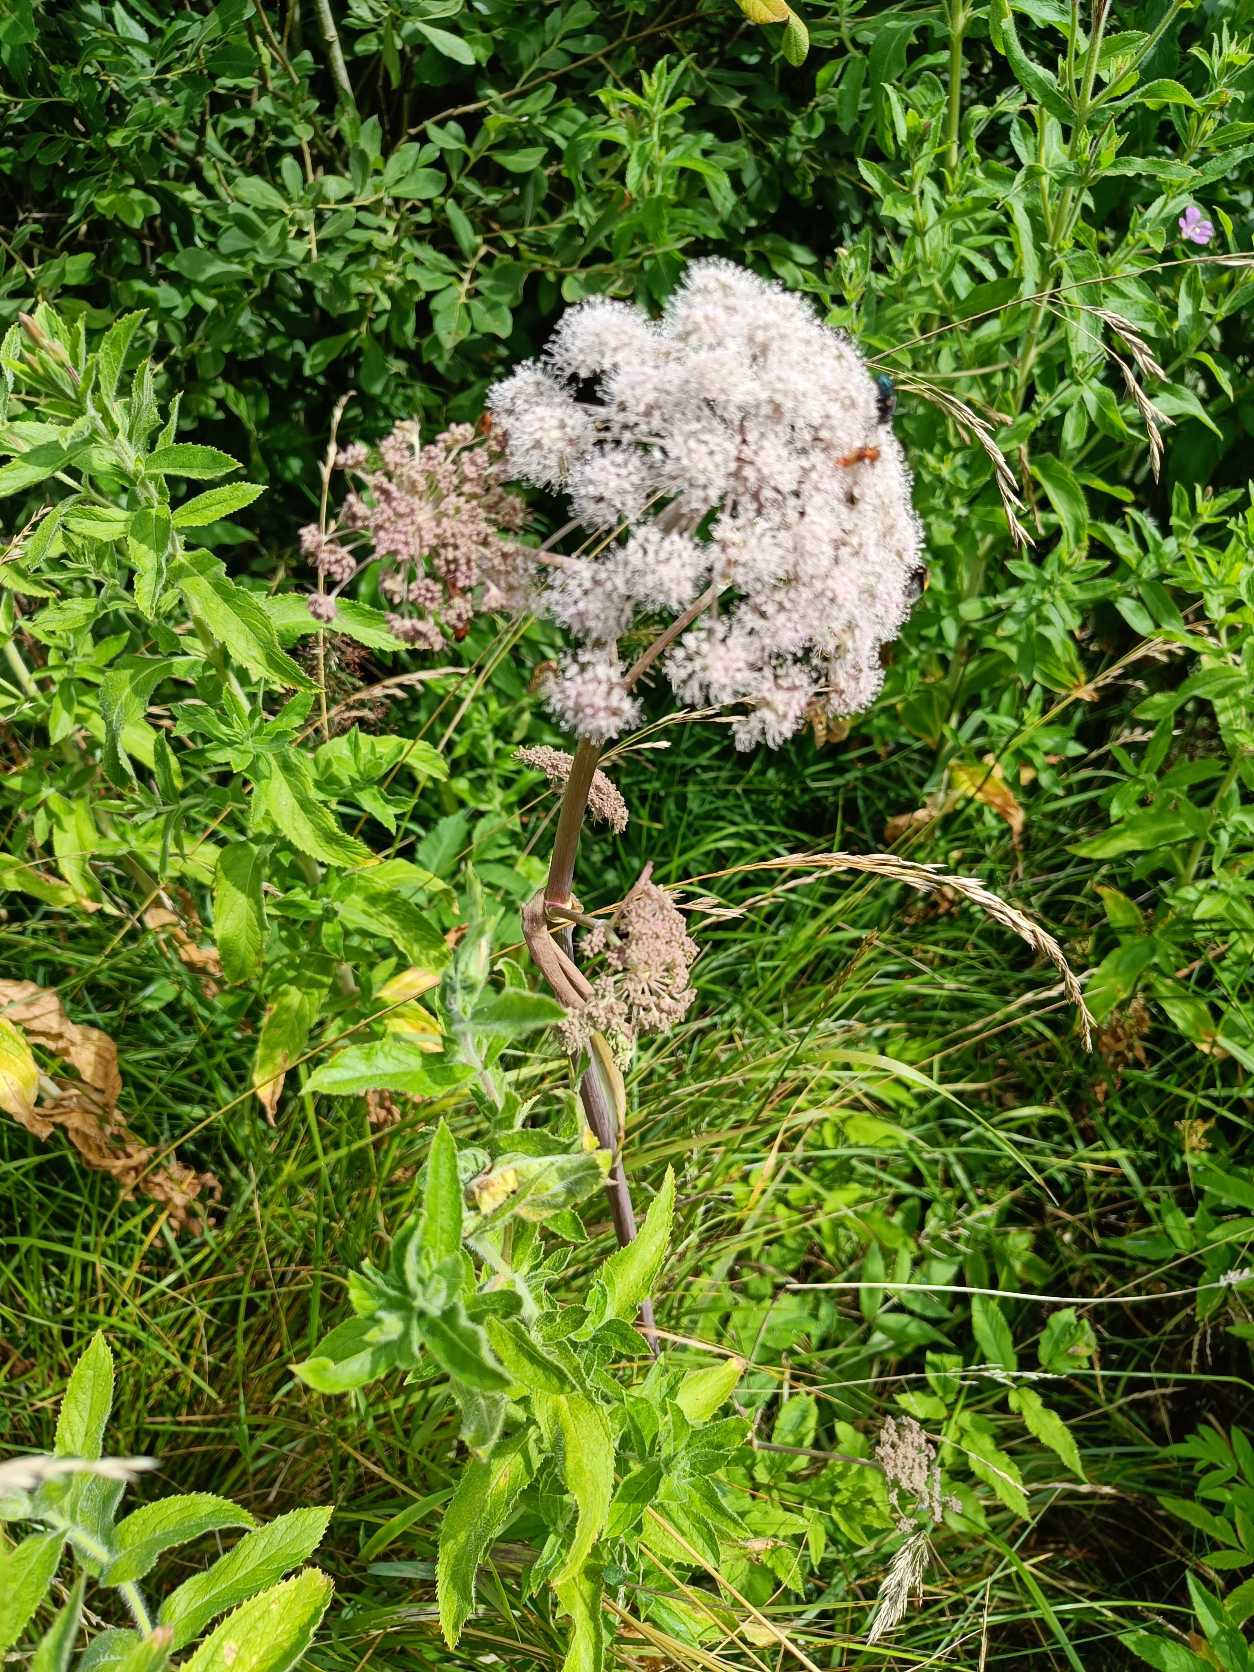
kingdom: Plantae
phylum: Tracheophyta
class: Magnoliopsida
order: Apiales
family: Apiaceae
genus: Angelica
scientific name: Angelica sylvestris
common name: Angelik
